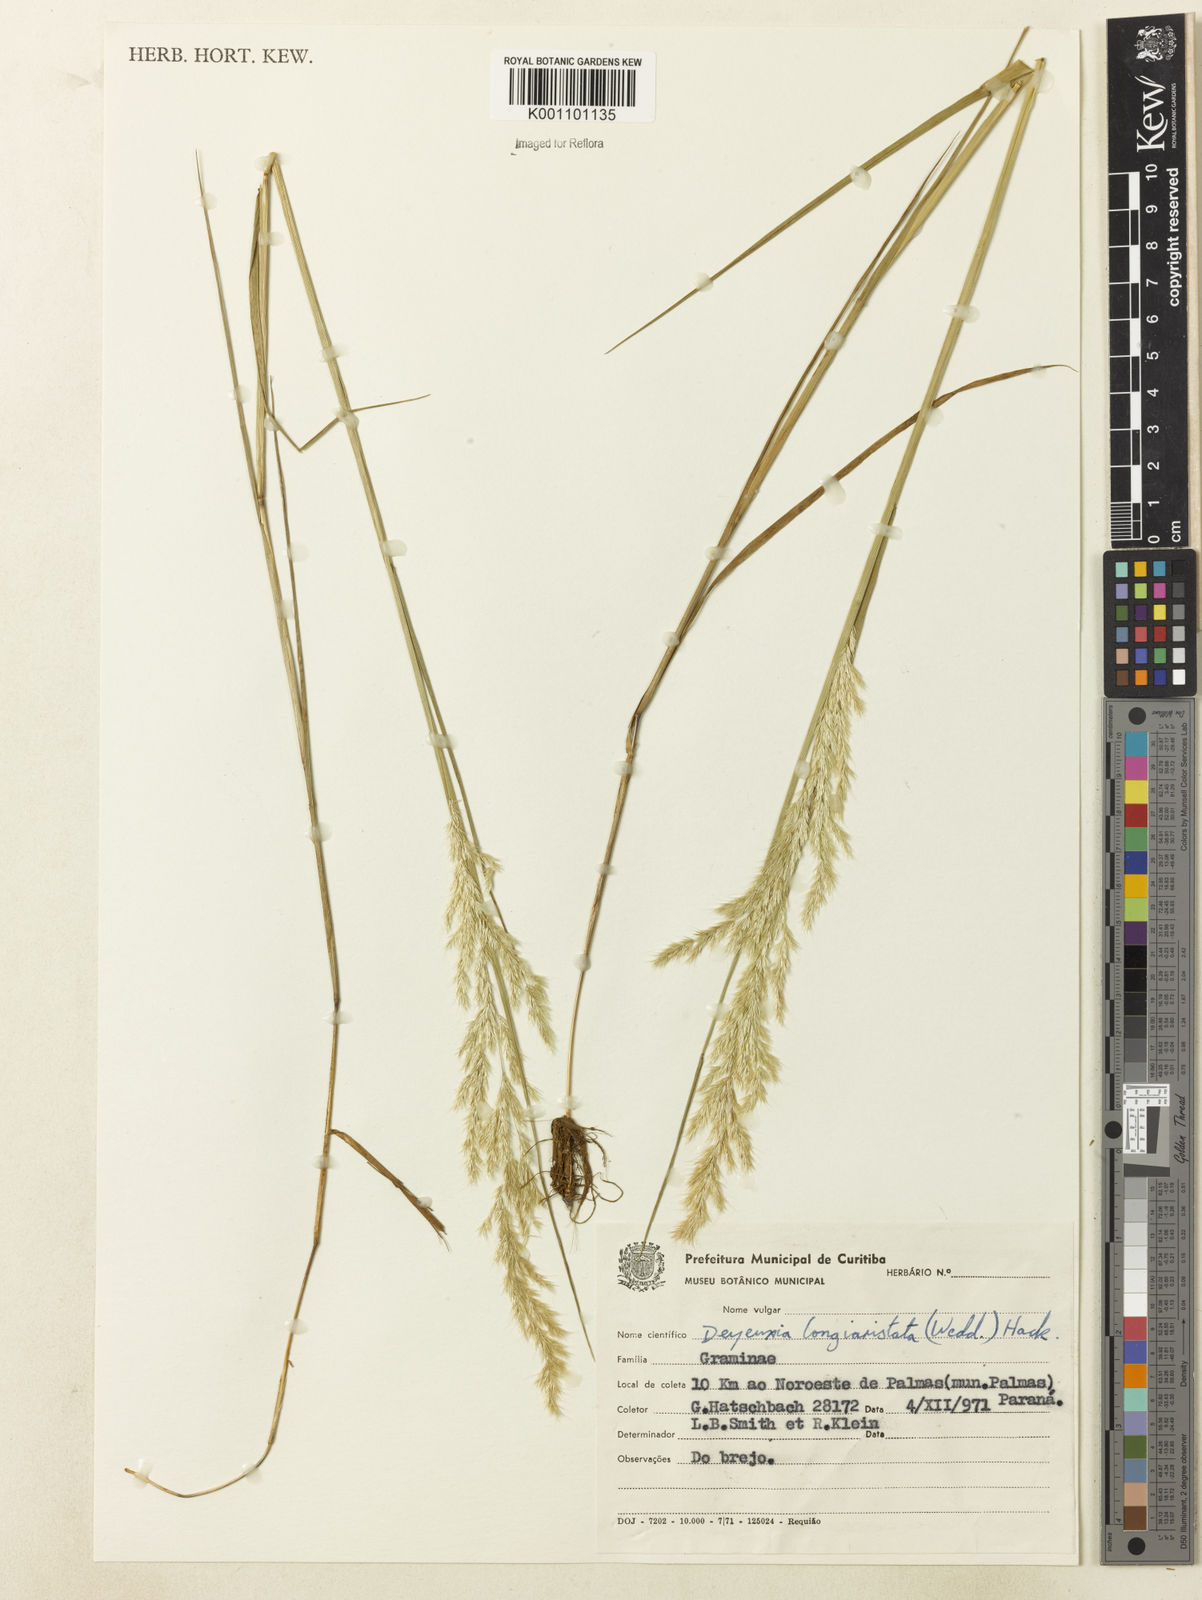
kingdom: Plantae
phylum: Tracheophyta
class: Liliopsida
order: Poales
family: Poaceae
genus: Cinnagrostis
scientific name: Cinnagrostis rupestris
